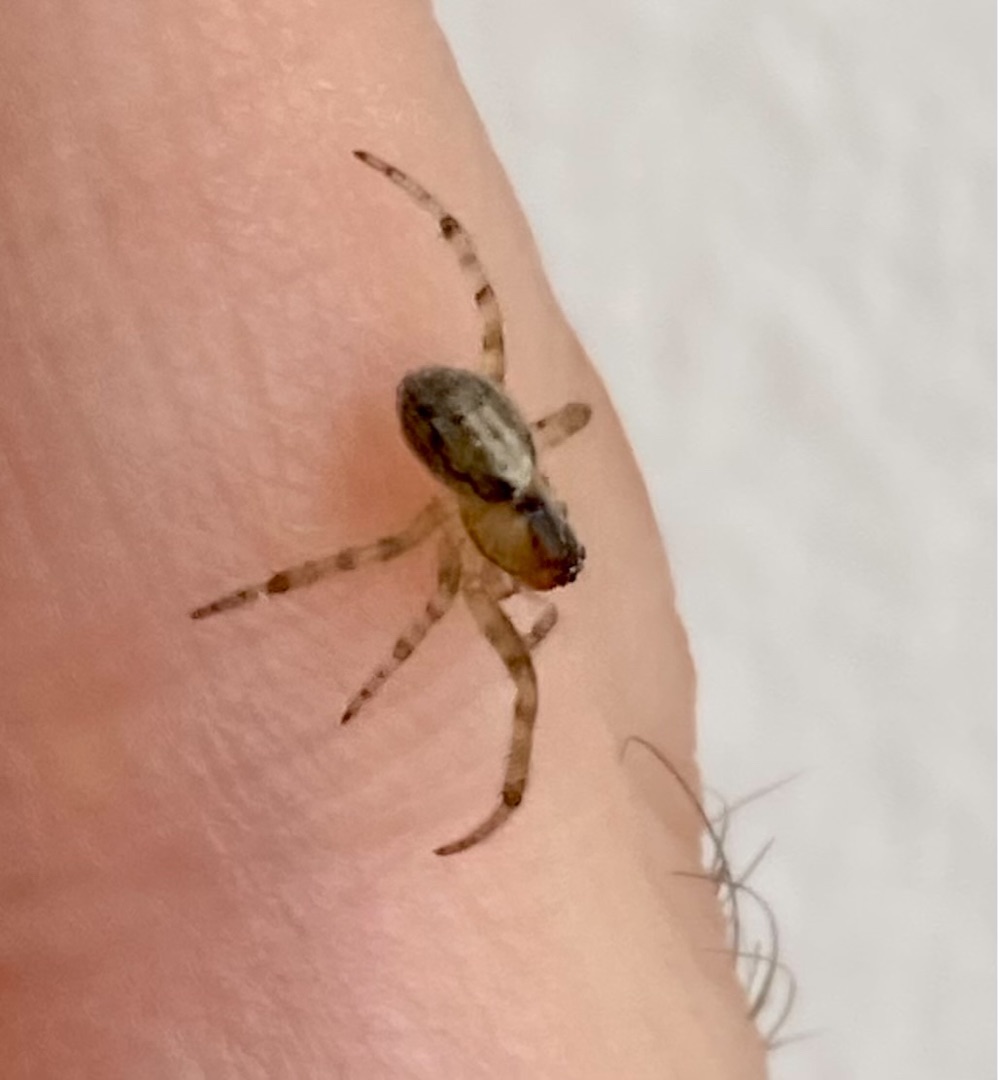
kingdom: Animalia
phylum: Arthropoda
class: Arachnida
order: Araneae
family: Araneidae
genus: Zygiella
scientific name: Zygiella x-notata
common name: Grå sektoredderkop
